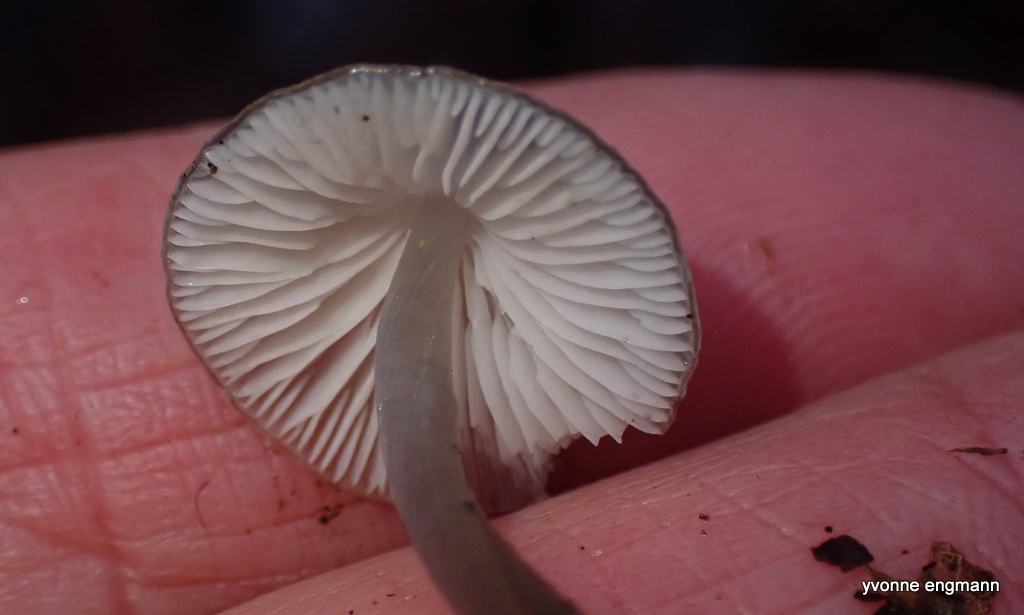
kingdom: Fungi
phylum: Basidiomycota
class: Agaricomycetes
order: Agaricales
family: Mycenaceae
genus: Mycena
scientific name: Mycena vitilis
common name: blankstokket huesvamp
